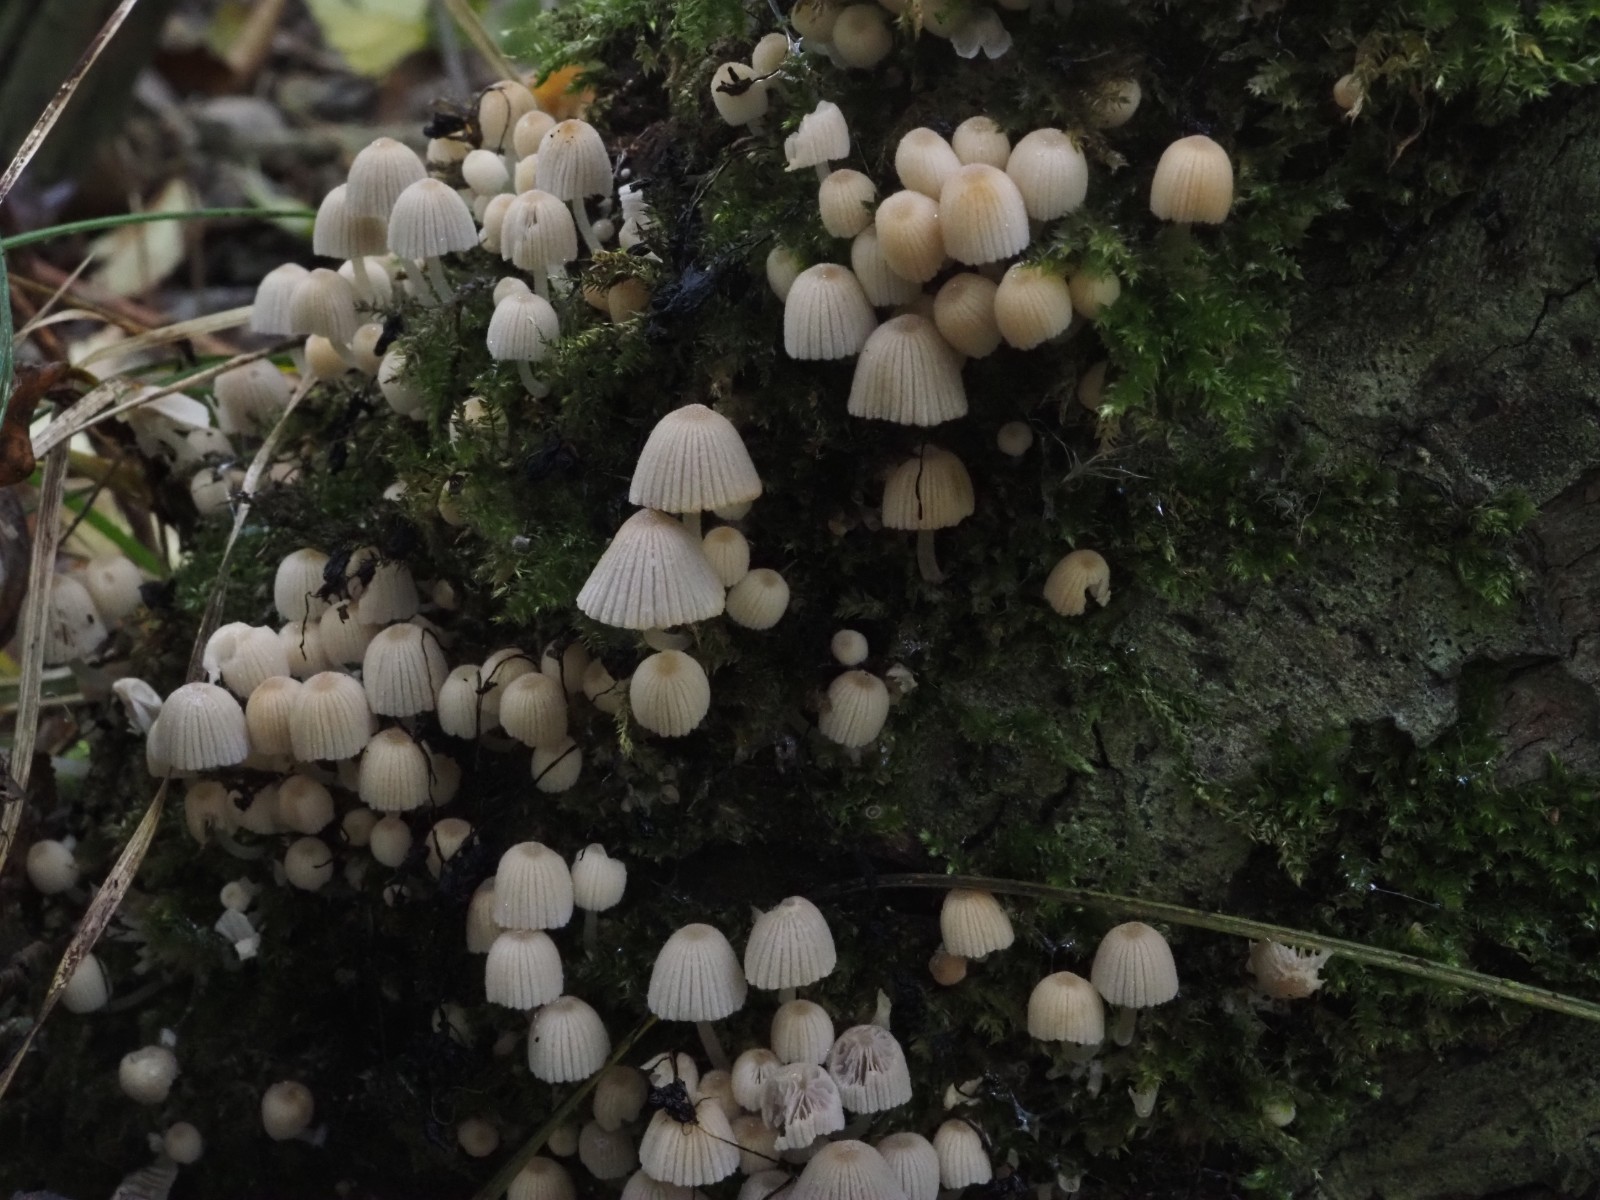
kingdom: Fungi
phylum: Basidiomycota
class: Agaricomycetes
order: Agaricales
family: Psathyrellaceae
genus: Coprinellus
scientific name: Coprinellus disseminatus
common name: bredsået blækhat
